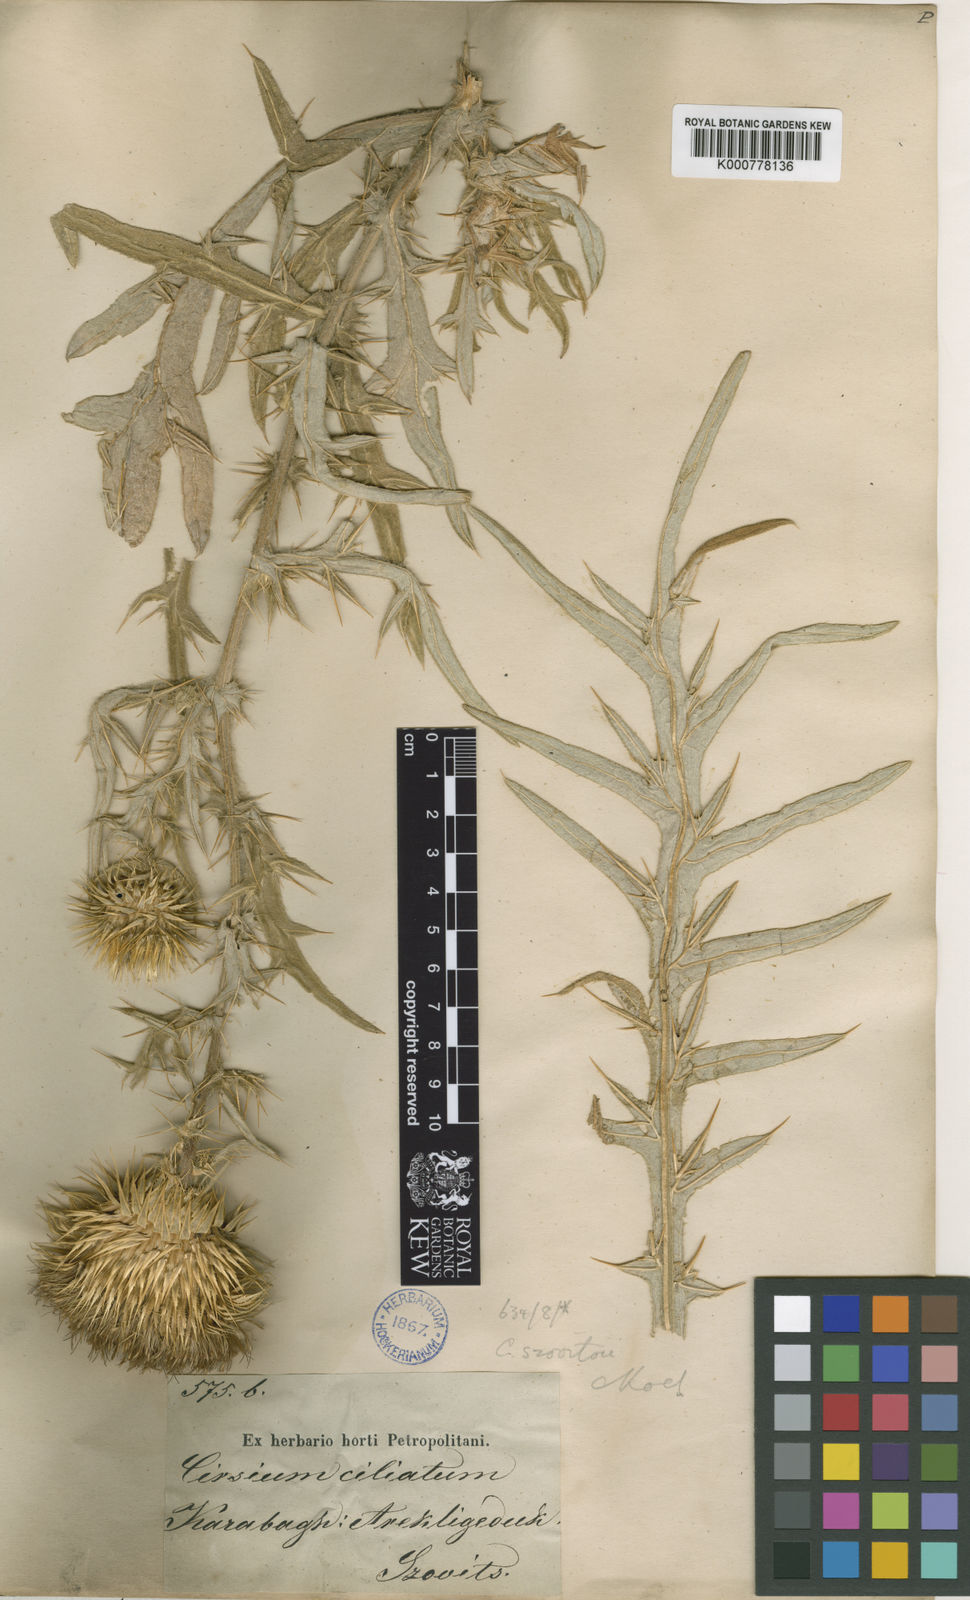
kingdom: Plantae
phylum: Tracheophyta
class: Magnoliopsida
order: Asterales
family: Asteraceae
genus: Cirsium
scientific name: Cirsium
